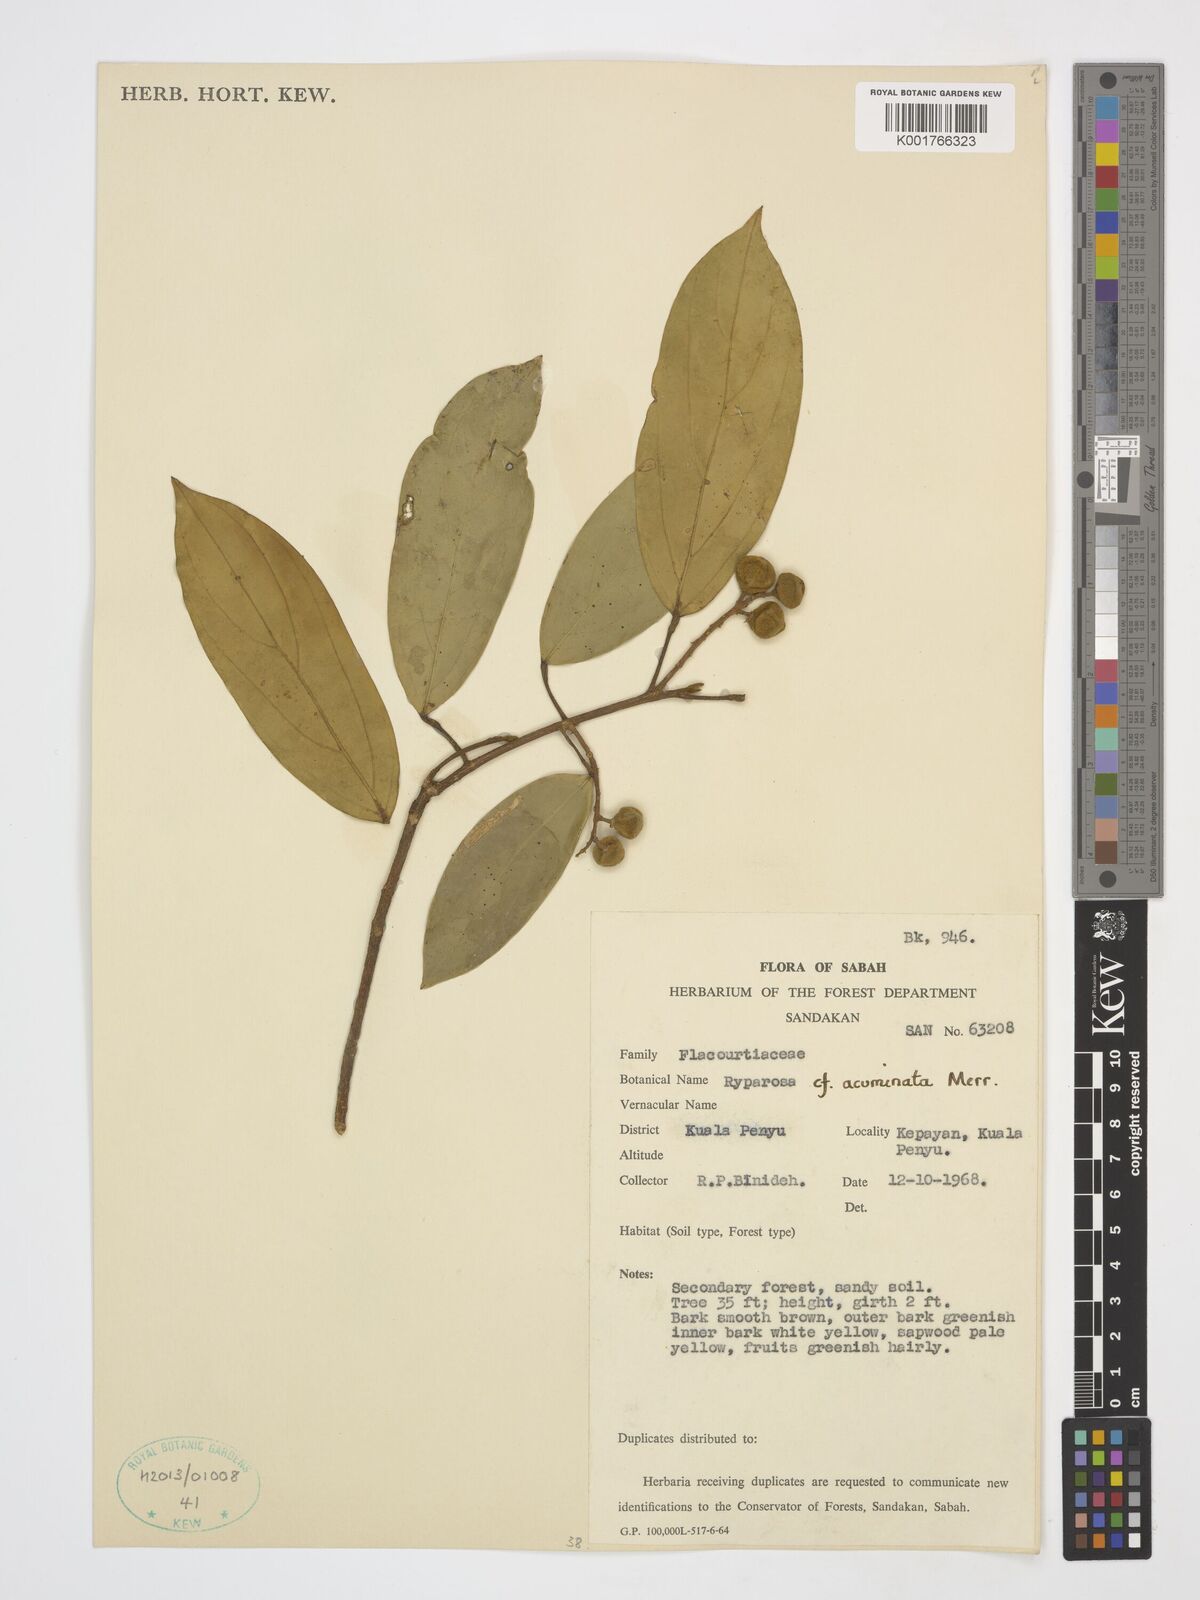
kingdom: Plantae
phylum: Tracheophyta
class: Magnoliopsida
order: Malpighiales
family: Achariaceae
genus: Ryparosa
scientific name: Ryparosa acuminata
